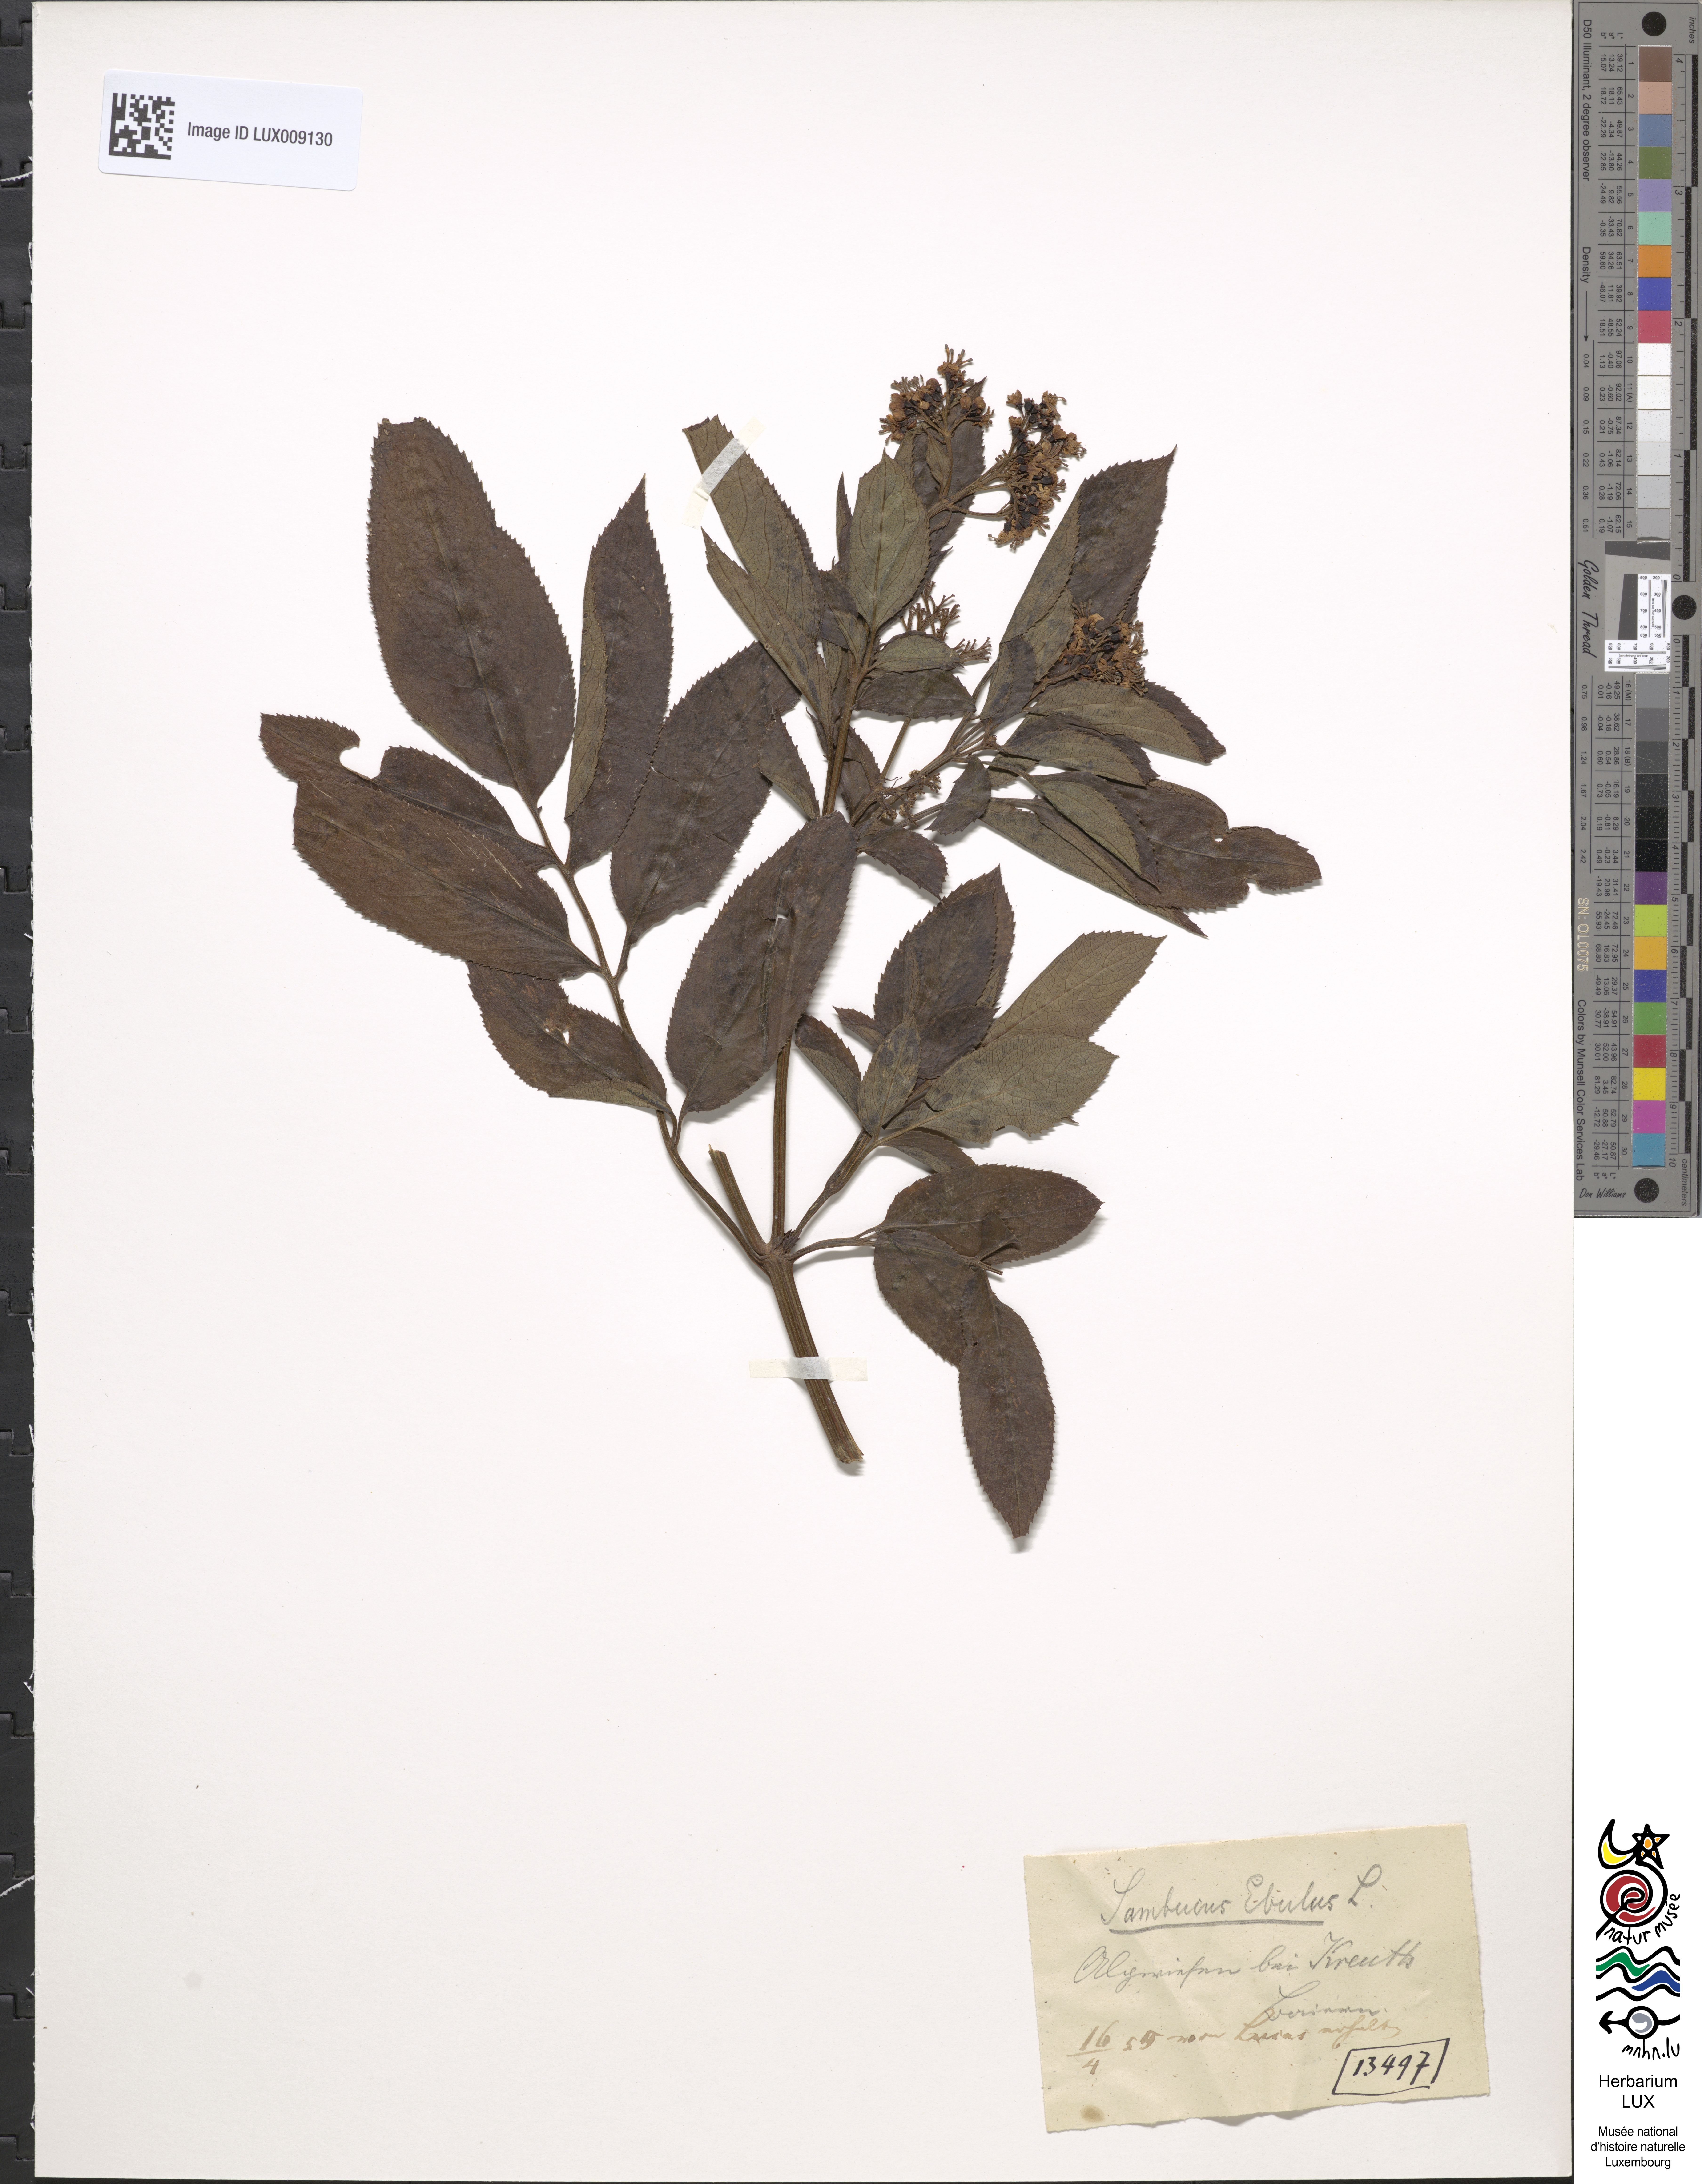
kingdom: Plantae
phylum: Tracheophyta
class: Magnoliopsida
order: Dipsacales
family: Viburnaceae
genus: Sambucus
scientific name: Sambucus ebulus
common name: Dwarf elder
